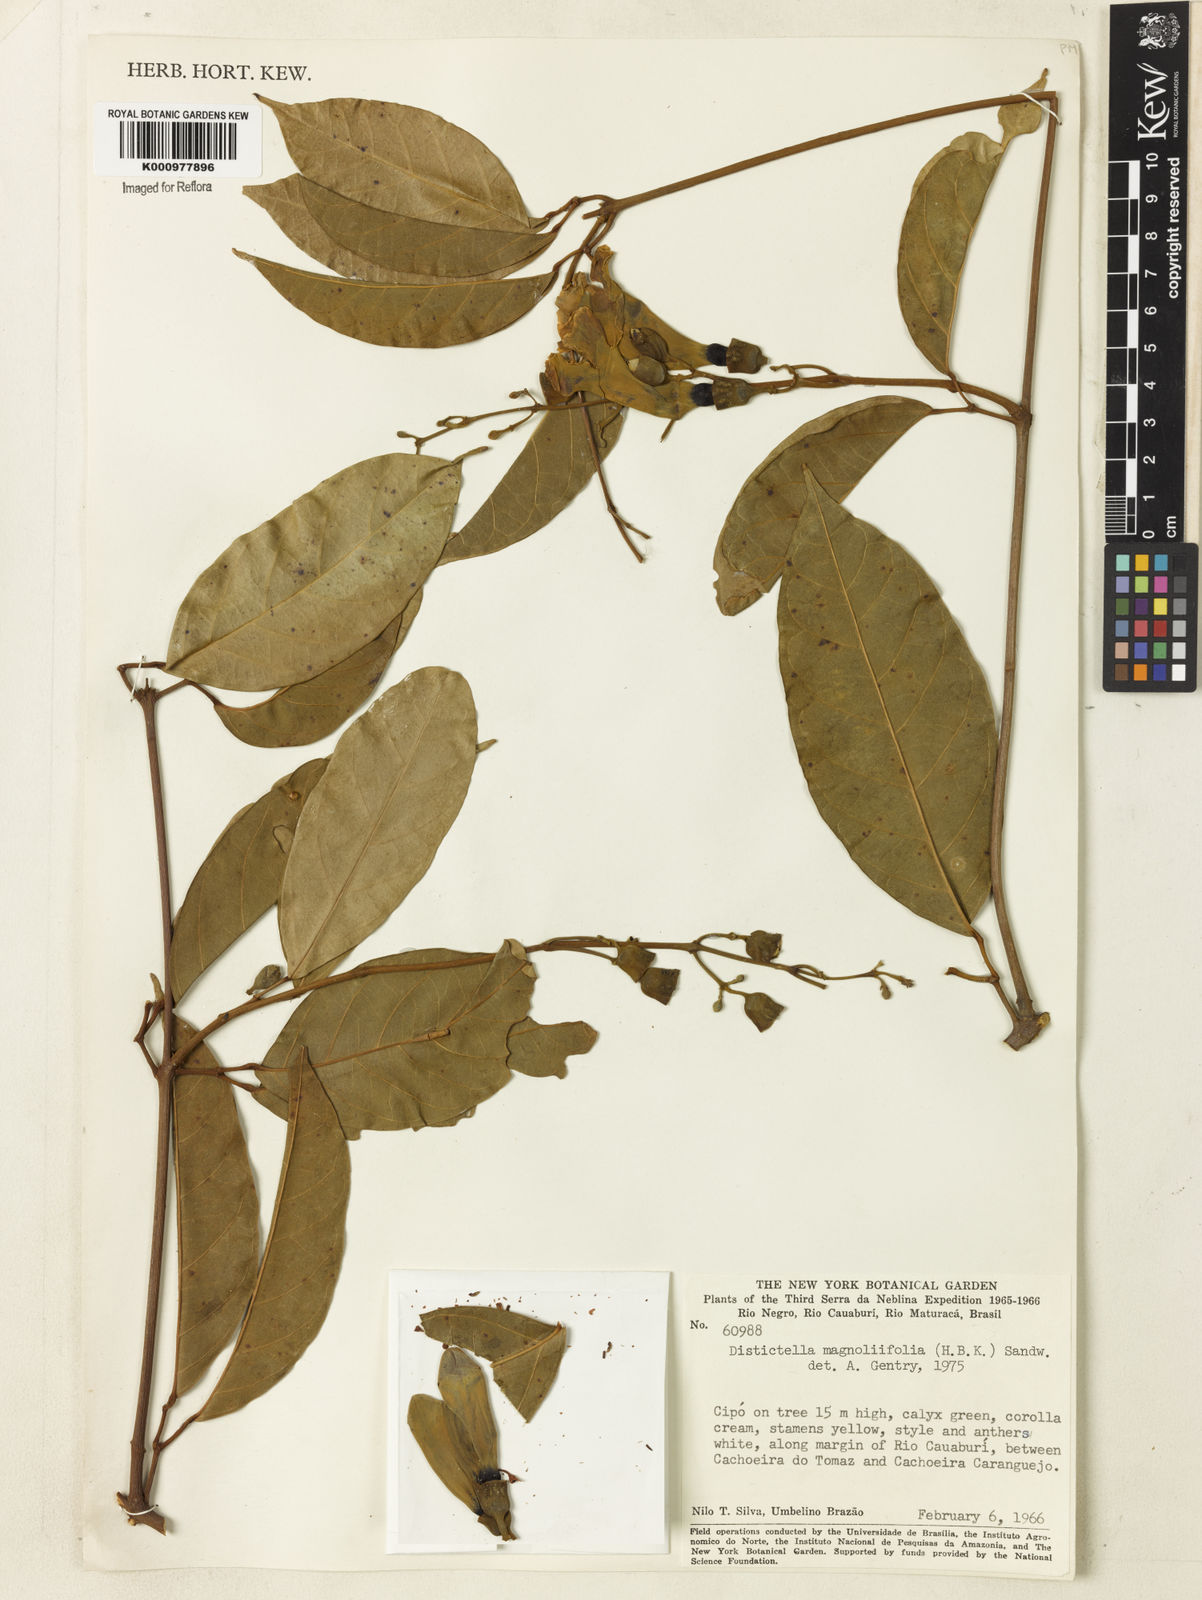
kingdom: Plantae
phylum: Tracheophyta
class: Magnoliopsida
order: Lamiales
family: Bignoniaceae
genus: Amphilophium
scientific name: Amphilophium
